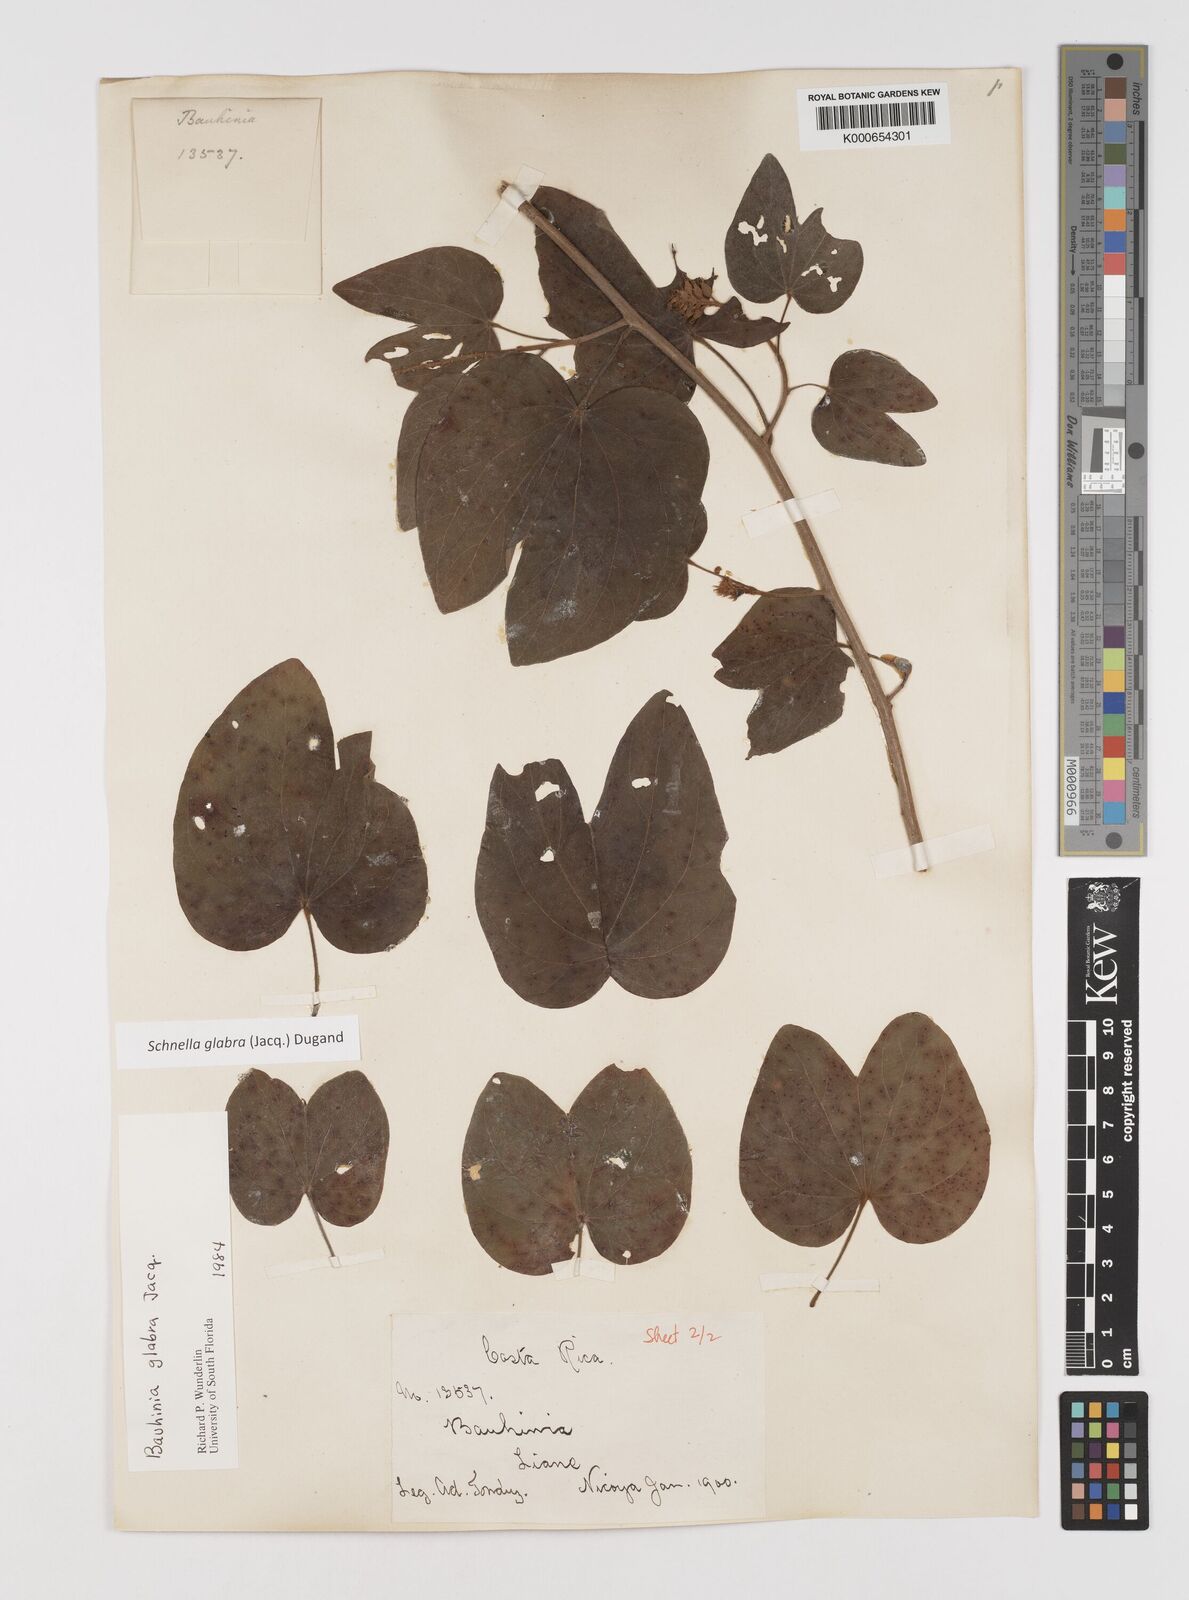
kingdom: Plantae
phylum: Tracheophyta
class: Magnoliopsida
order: Fabales
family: Fabaceae
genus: Schnella
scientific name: Schnella glabra
